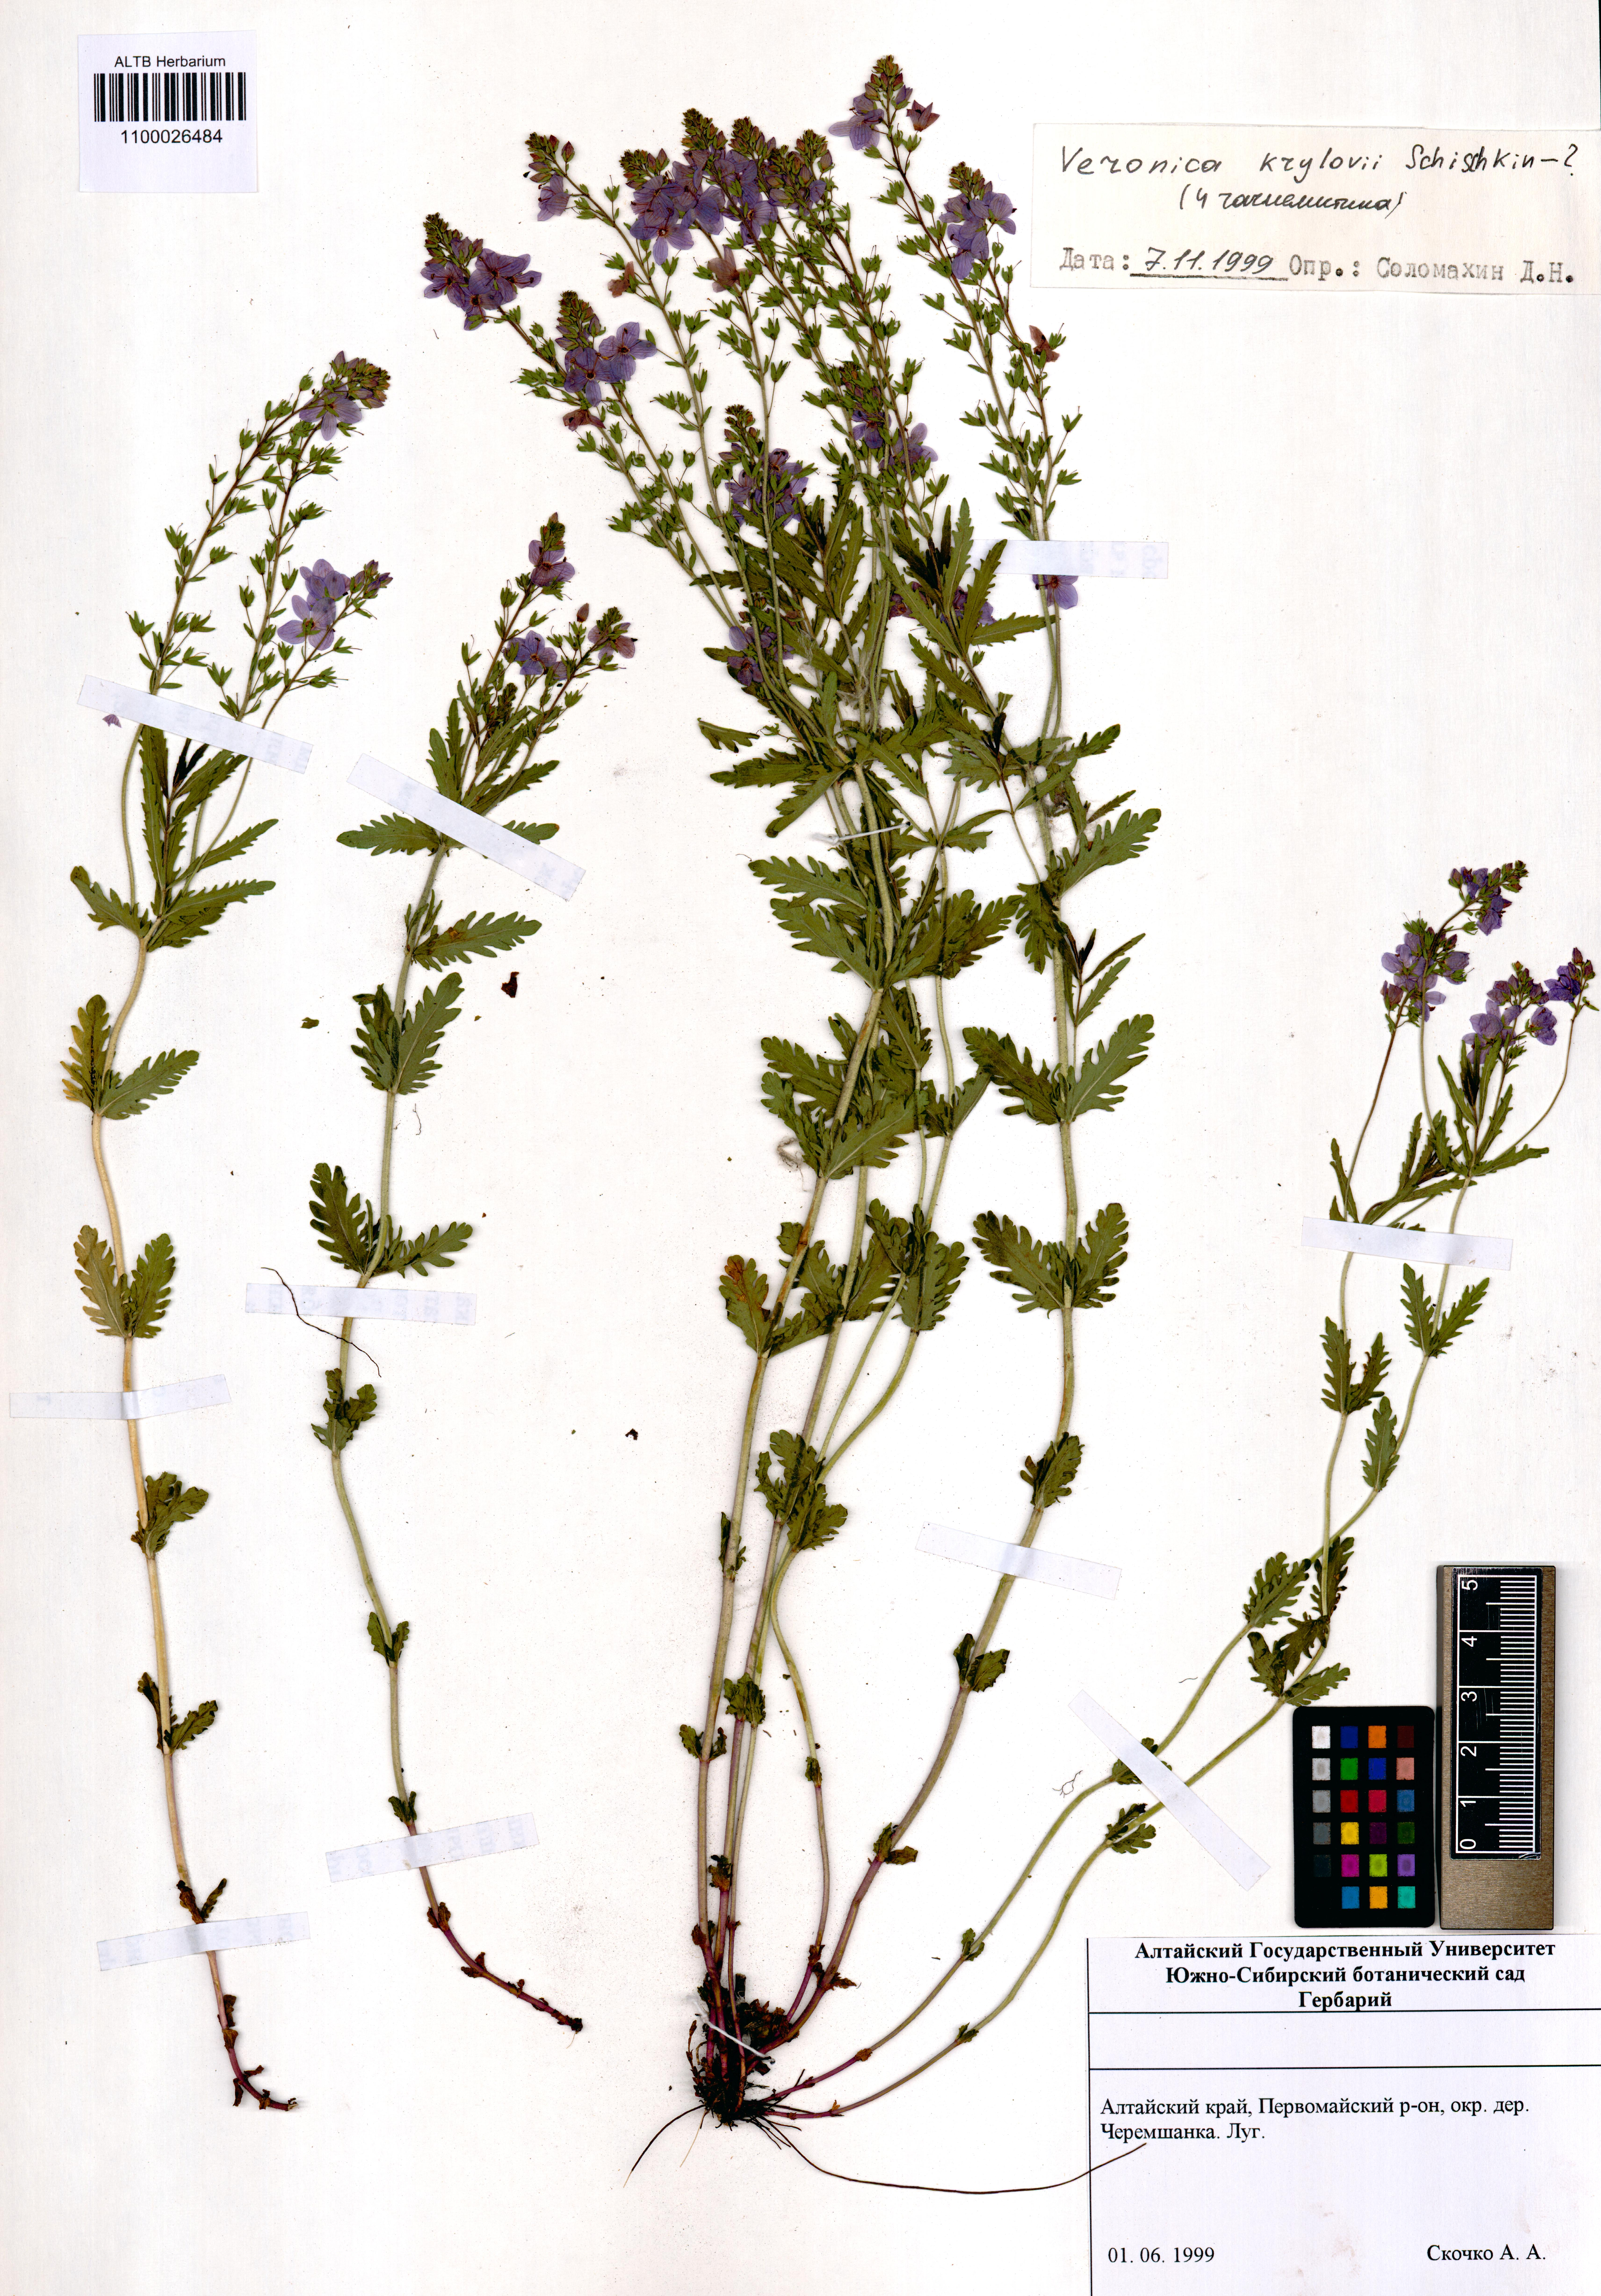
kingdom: Plantae
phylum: Tracheophyta
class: Magnoliopsida
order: Lamiales
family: Plantaginaceae
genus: Veronica
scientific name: Veronica krylovii
